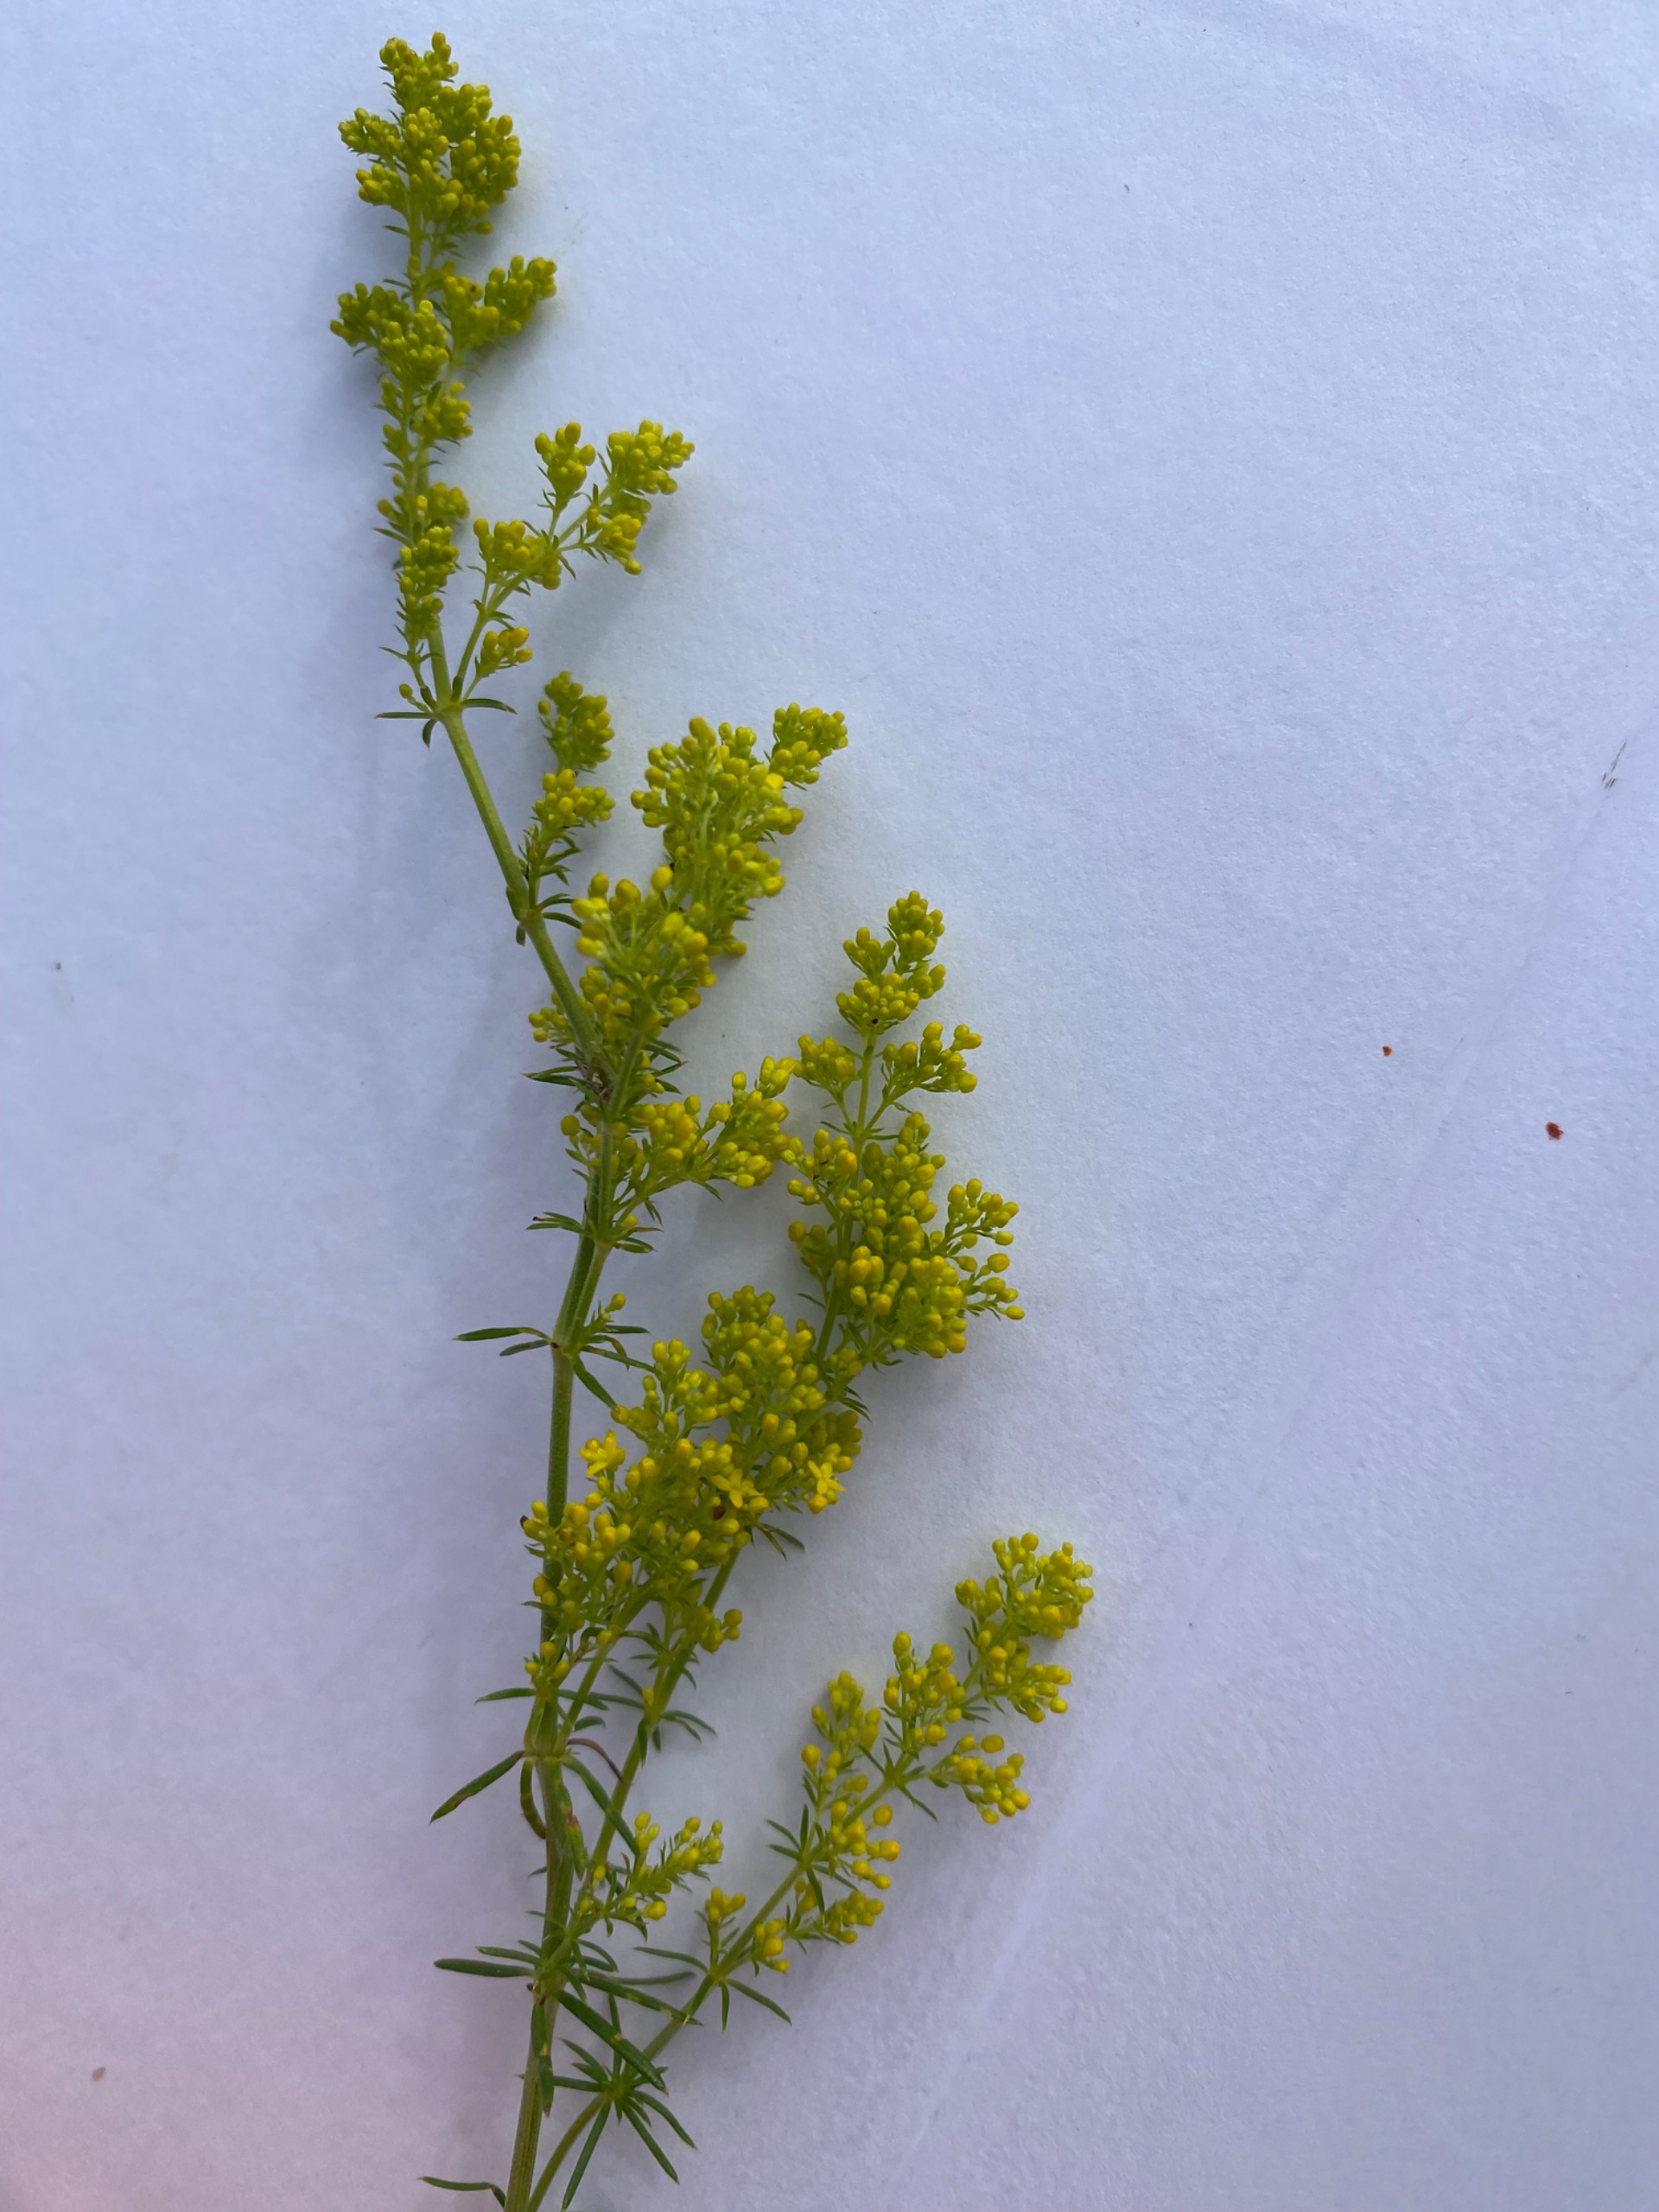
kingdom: Plantae
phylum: Tracheophyta
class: Magnoliopsida
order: Gentianales
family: Rubiaceae
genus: Galium
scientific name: Galium verum
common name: Gul snerre
